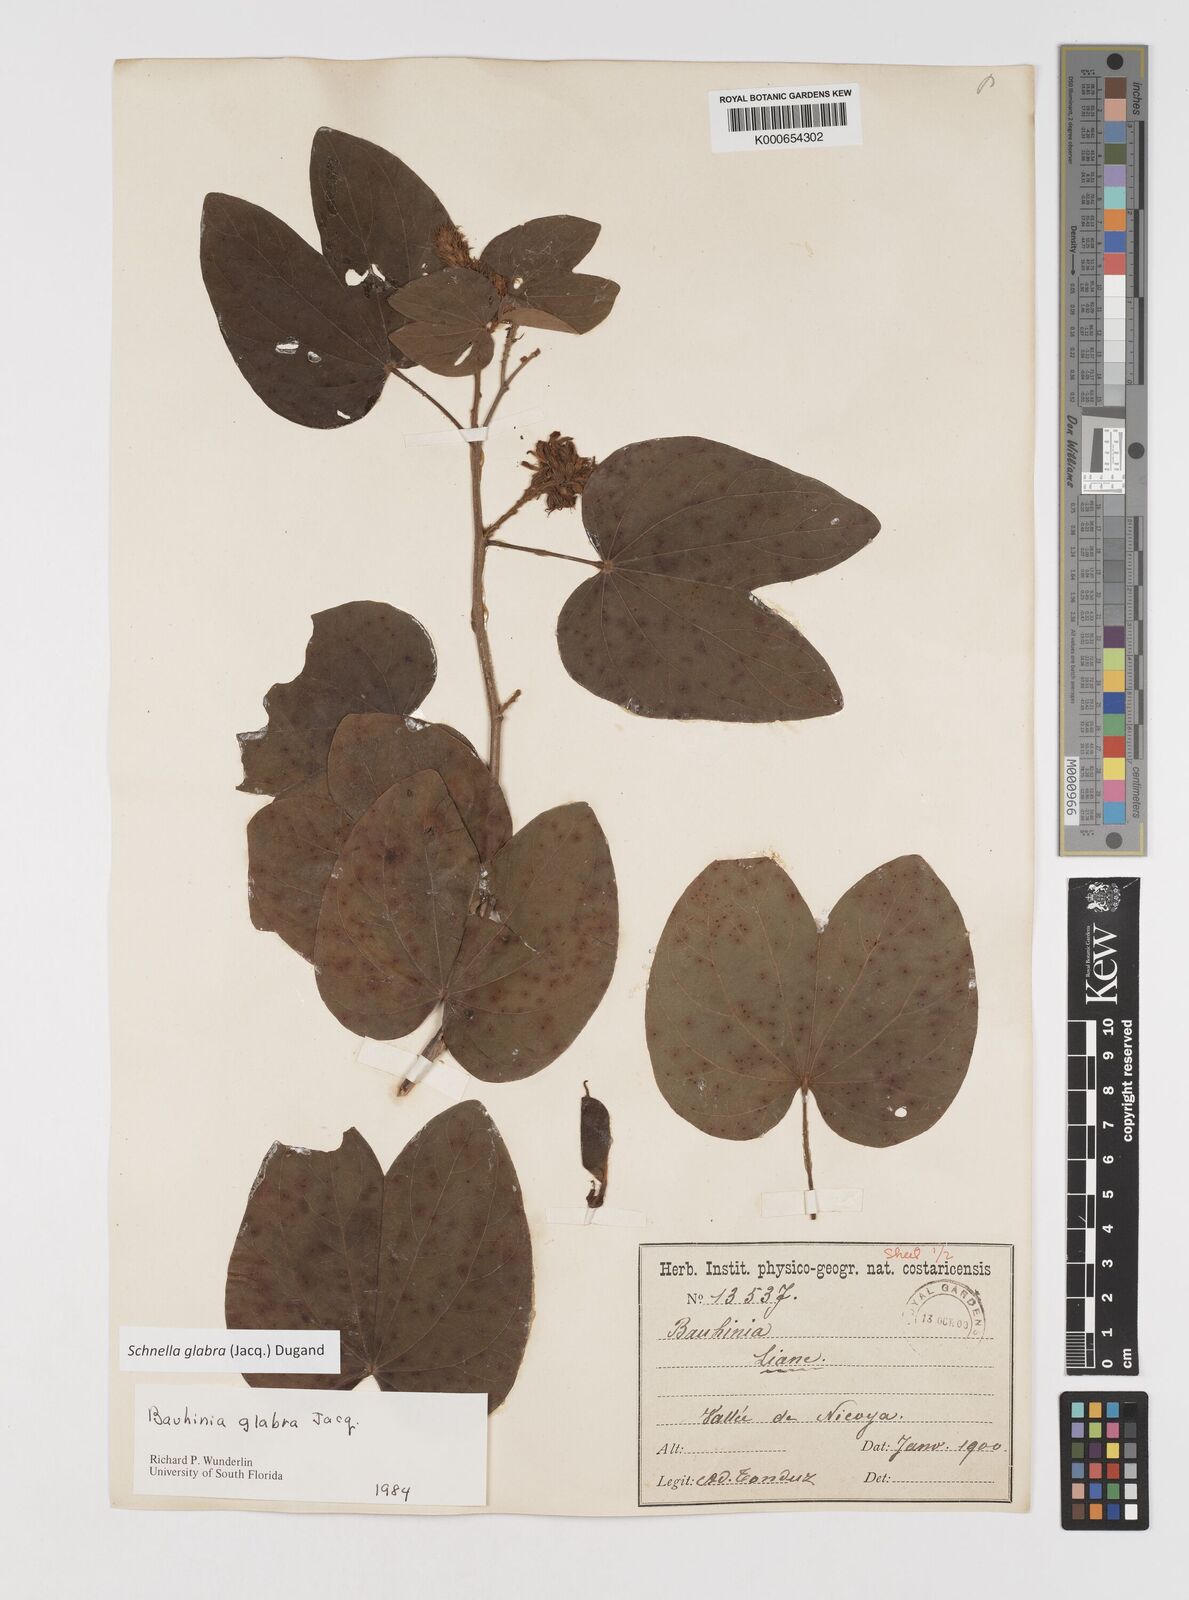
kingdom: Plantae
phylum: Tracheophyta
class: Magnoliopsida
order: Fabales
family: Fabaceae
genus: Schnella
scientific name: Schnella glabra
